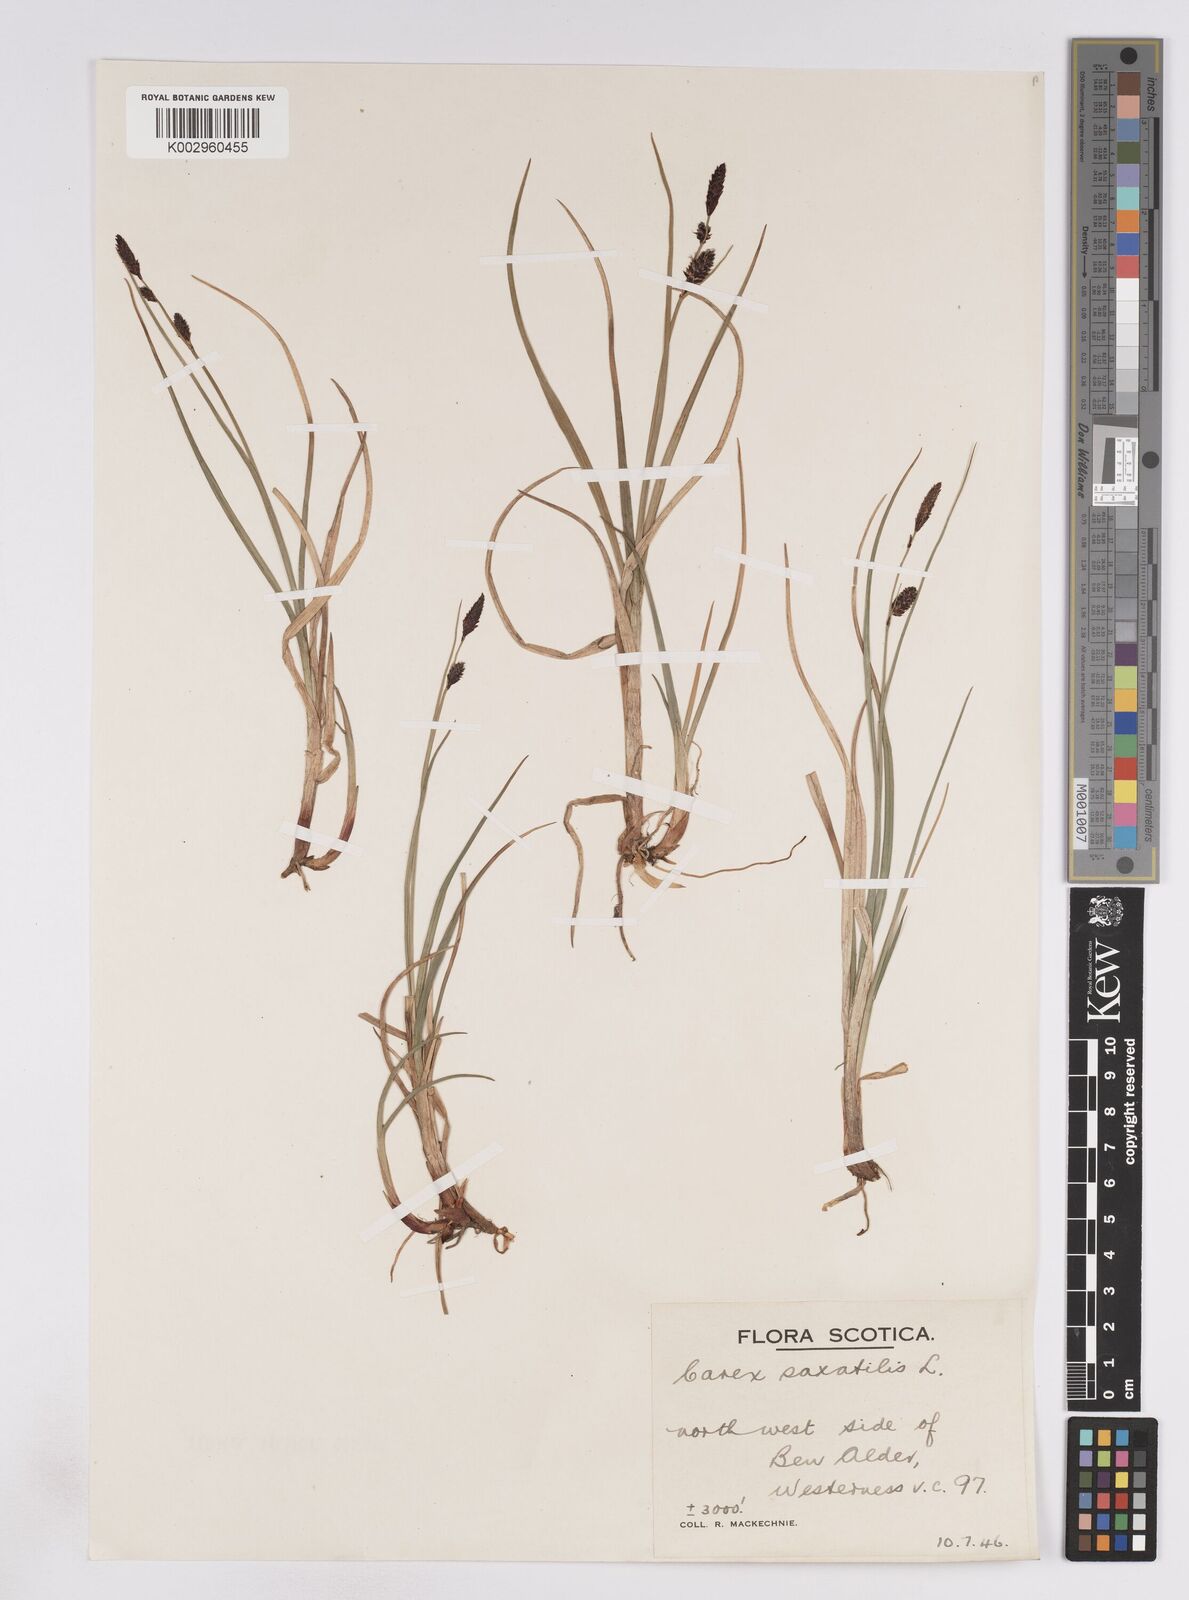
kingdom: Plantae
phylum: Tracheophyta
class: Liliopsida
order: Poales
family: Cyperaceae
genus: Carex
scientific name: Carex saxatilis
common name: Russet sedge
